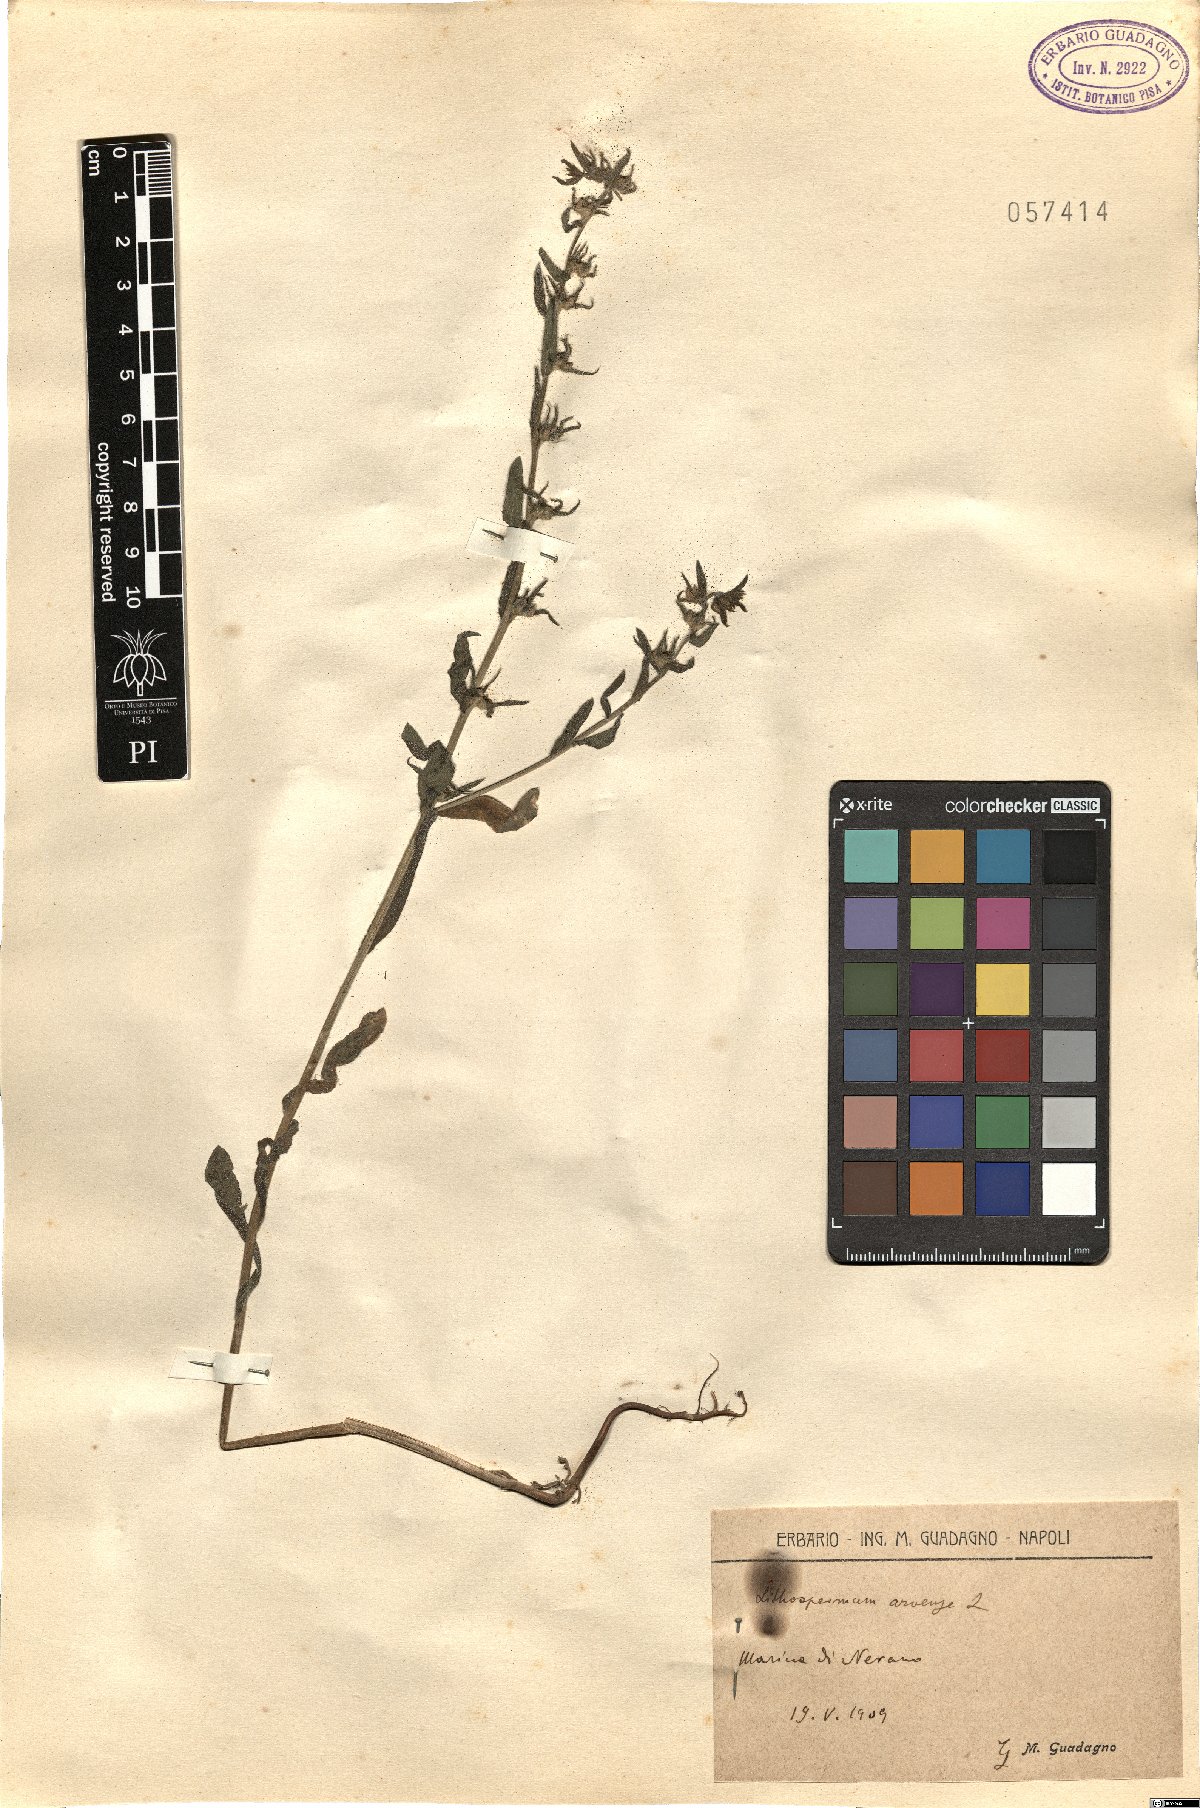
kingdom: Plantae
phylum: Tracheophyta
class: Magnoliopsida
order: Boraginales
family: Boraginaceae
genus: Buglossoides
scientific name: Buglossoides arvensis
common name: Corn gromwell
